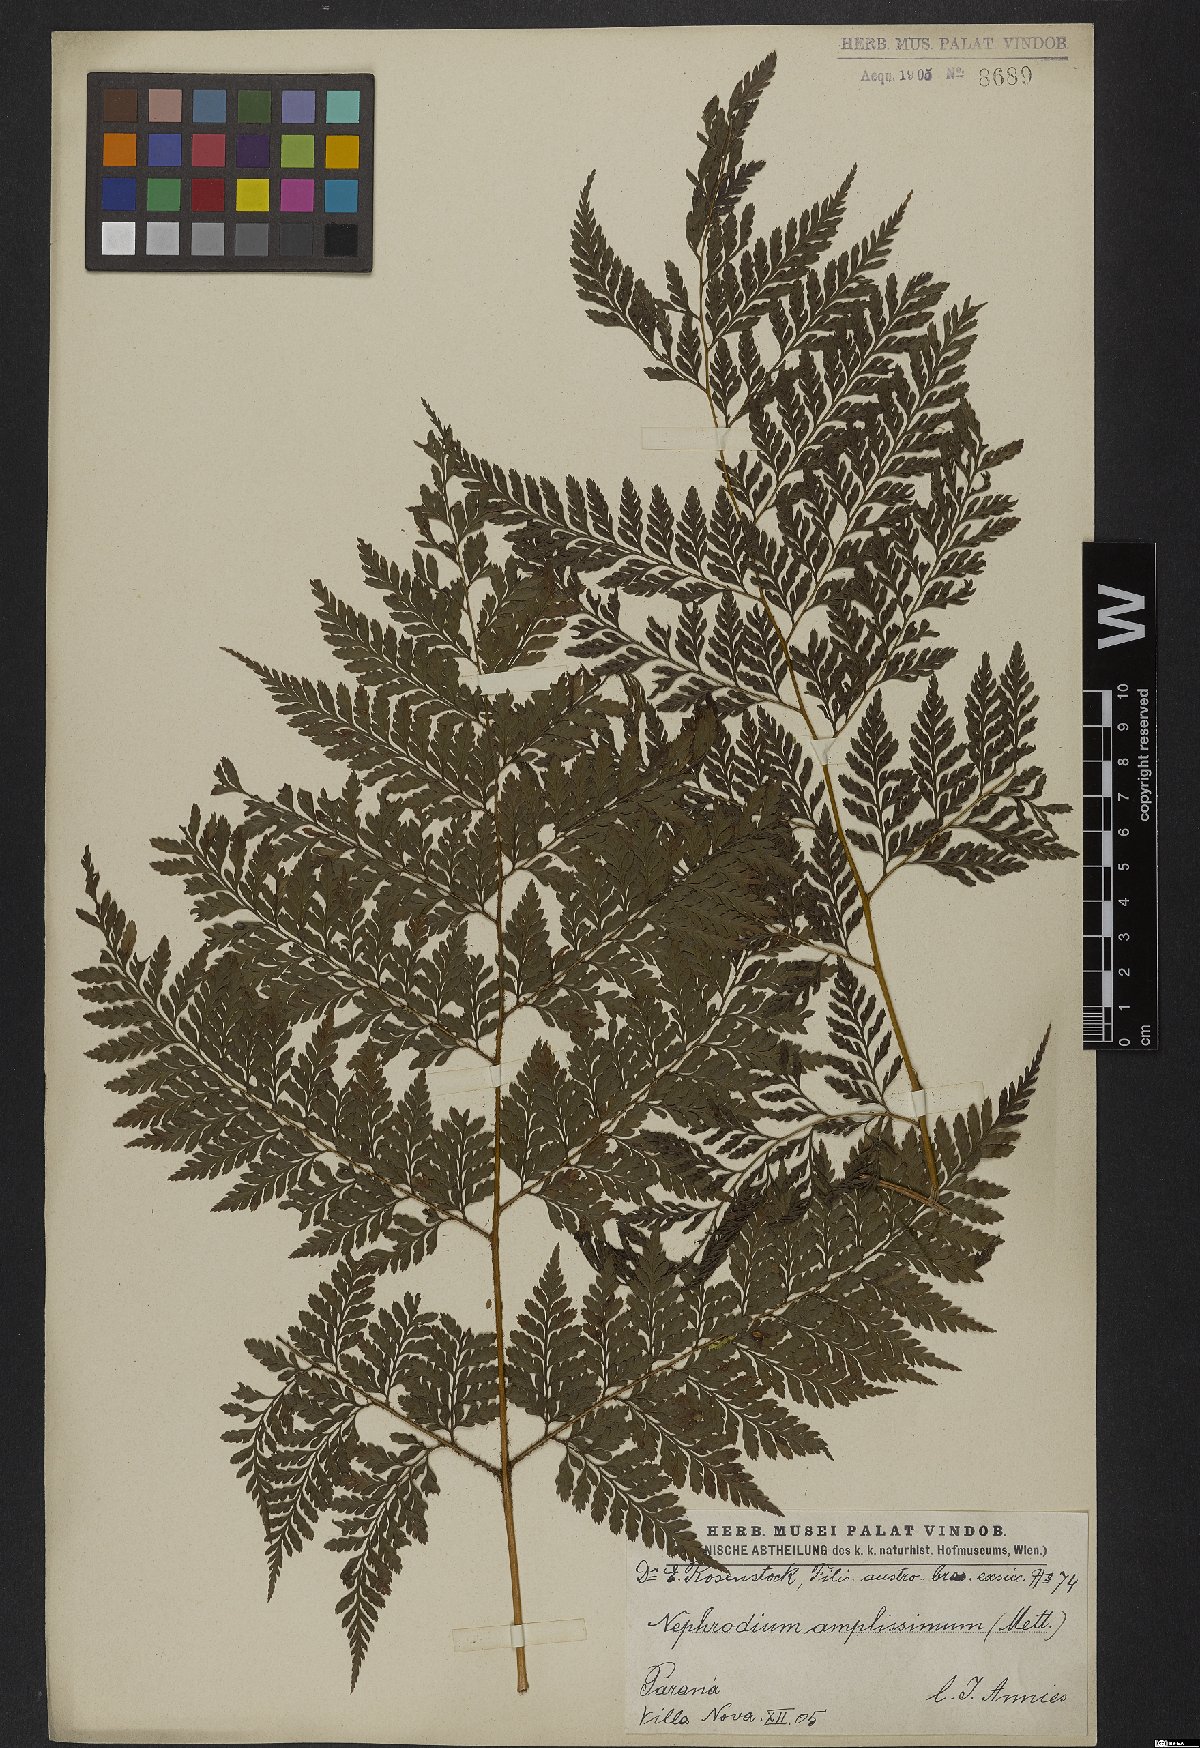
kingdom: Plantae
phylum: Tracheophyta
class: Polypodiopsida
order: Polypodiales
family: Dryopteridaceae
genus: Lastreopsis
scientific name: Lastreopsis amplissima
